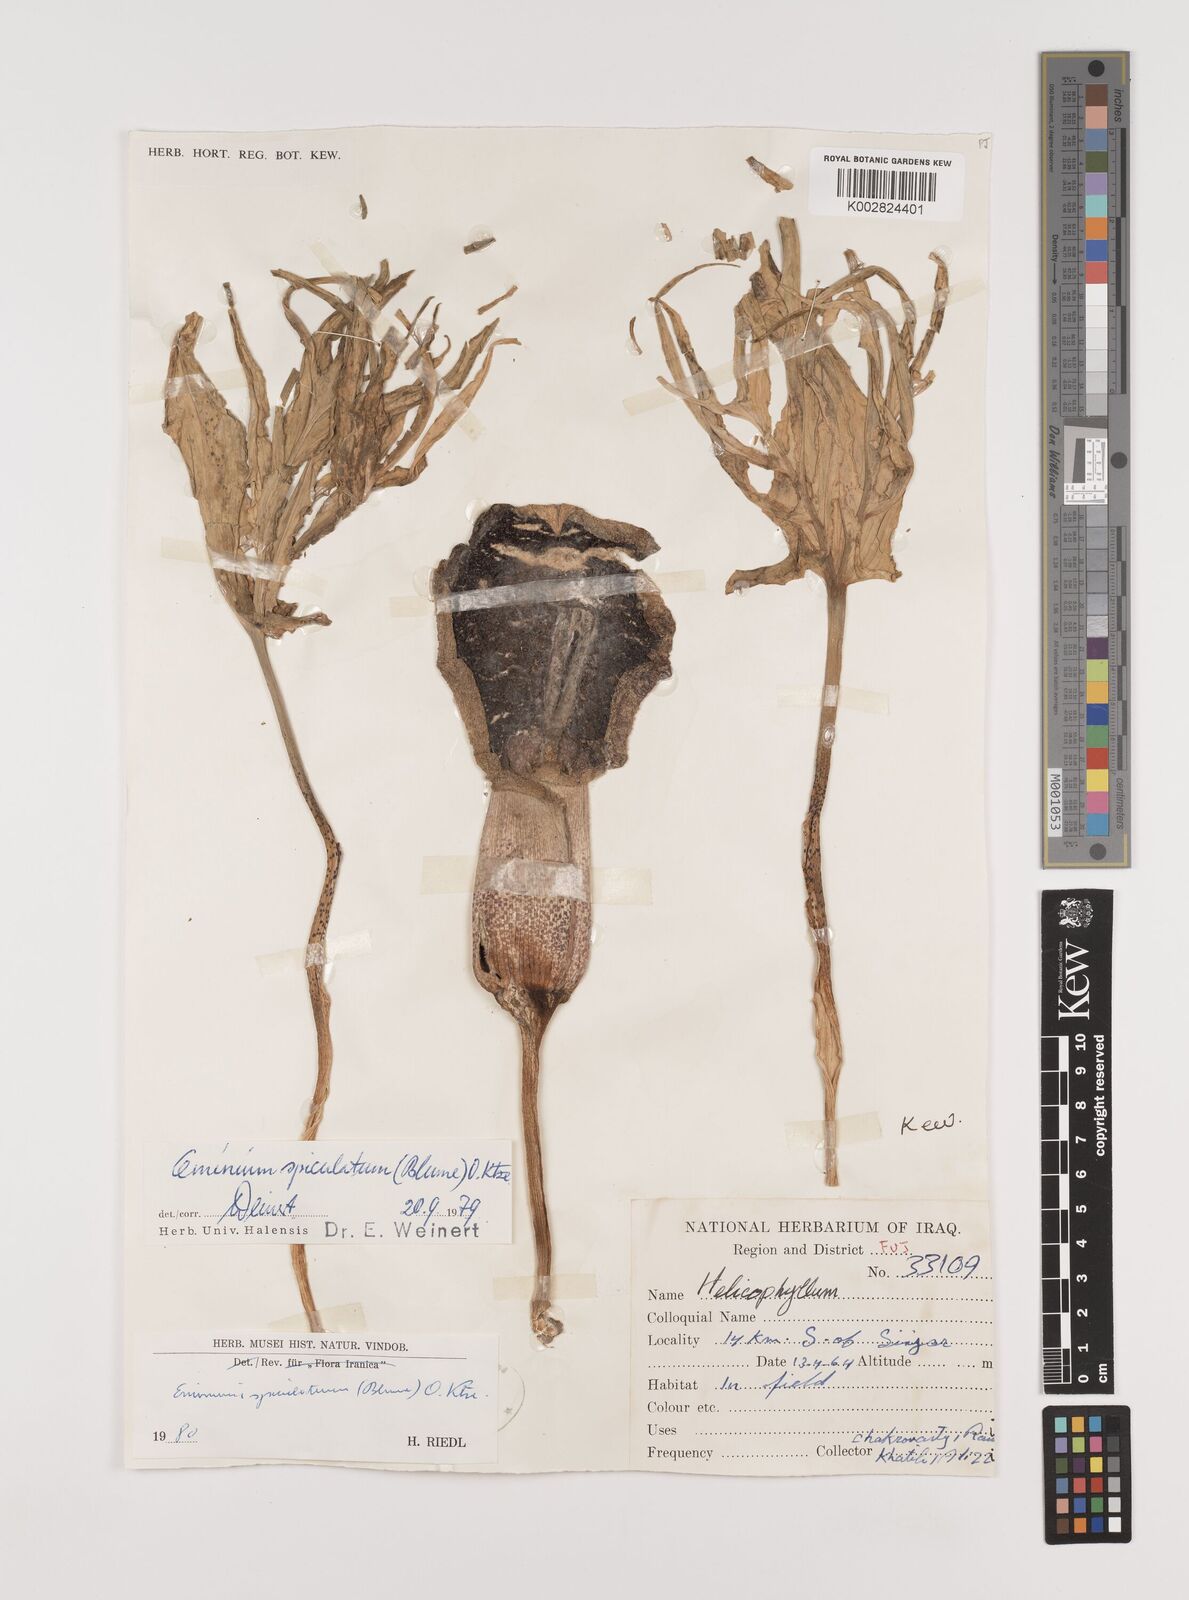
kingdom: Plantae
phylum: Tracheophyta
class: Liliopsida
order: Alismatales
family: Araceae
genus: Eminium
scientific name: Eminium spiculatum
